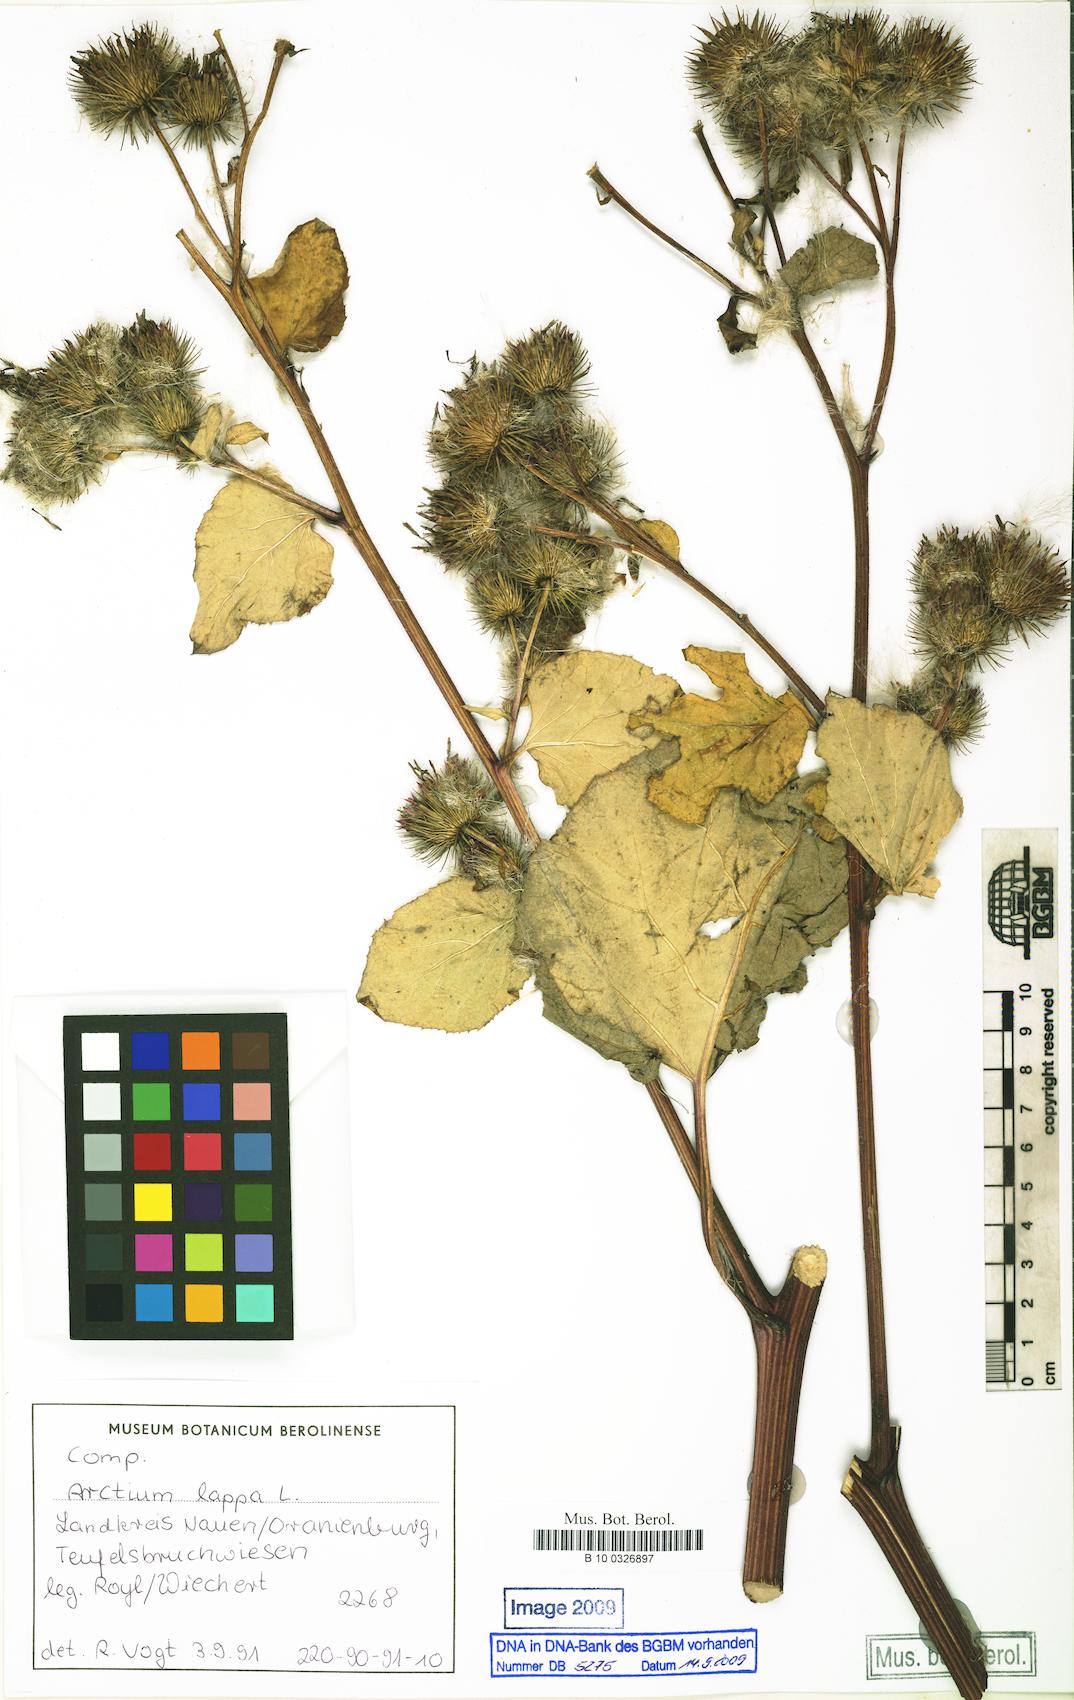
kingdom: Plantae
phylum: Tracheophyta
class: Magnoliopsida
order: Asterales
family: Asteraceae
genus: Arctium
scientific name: Arctium lappa
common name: Greater burdock
